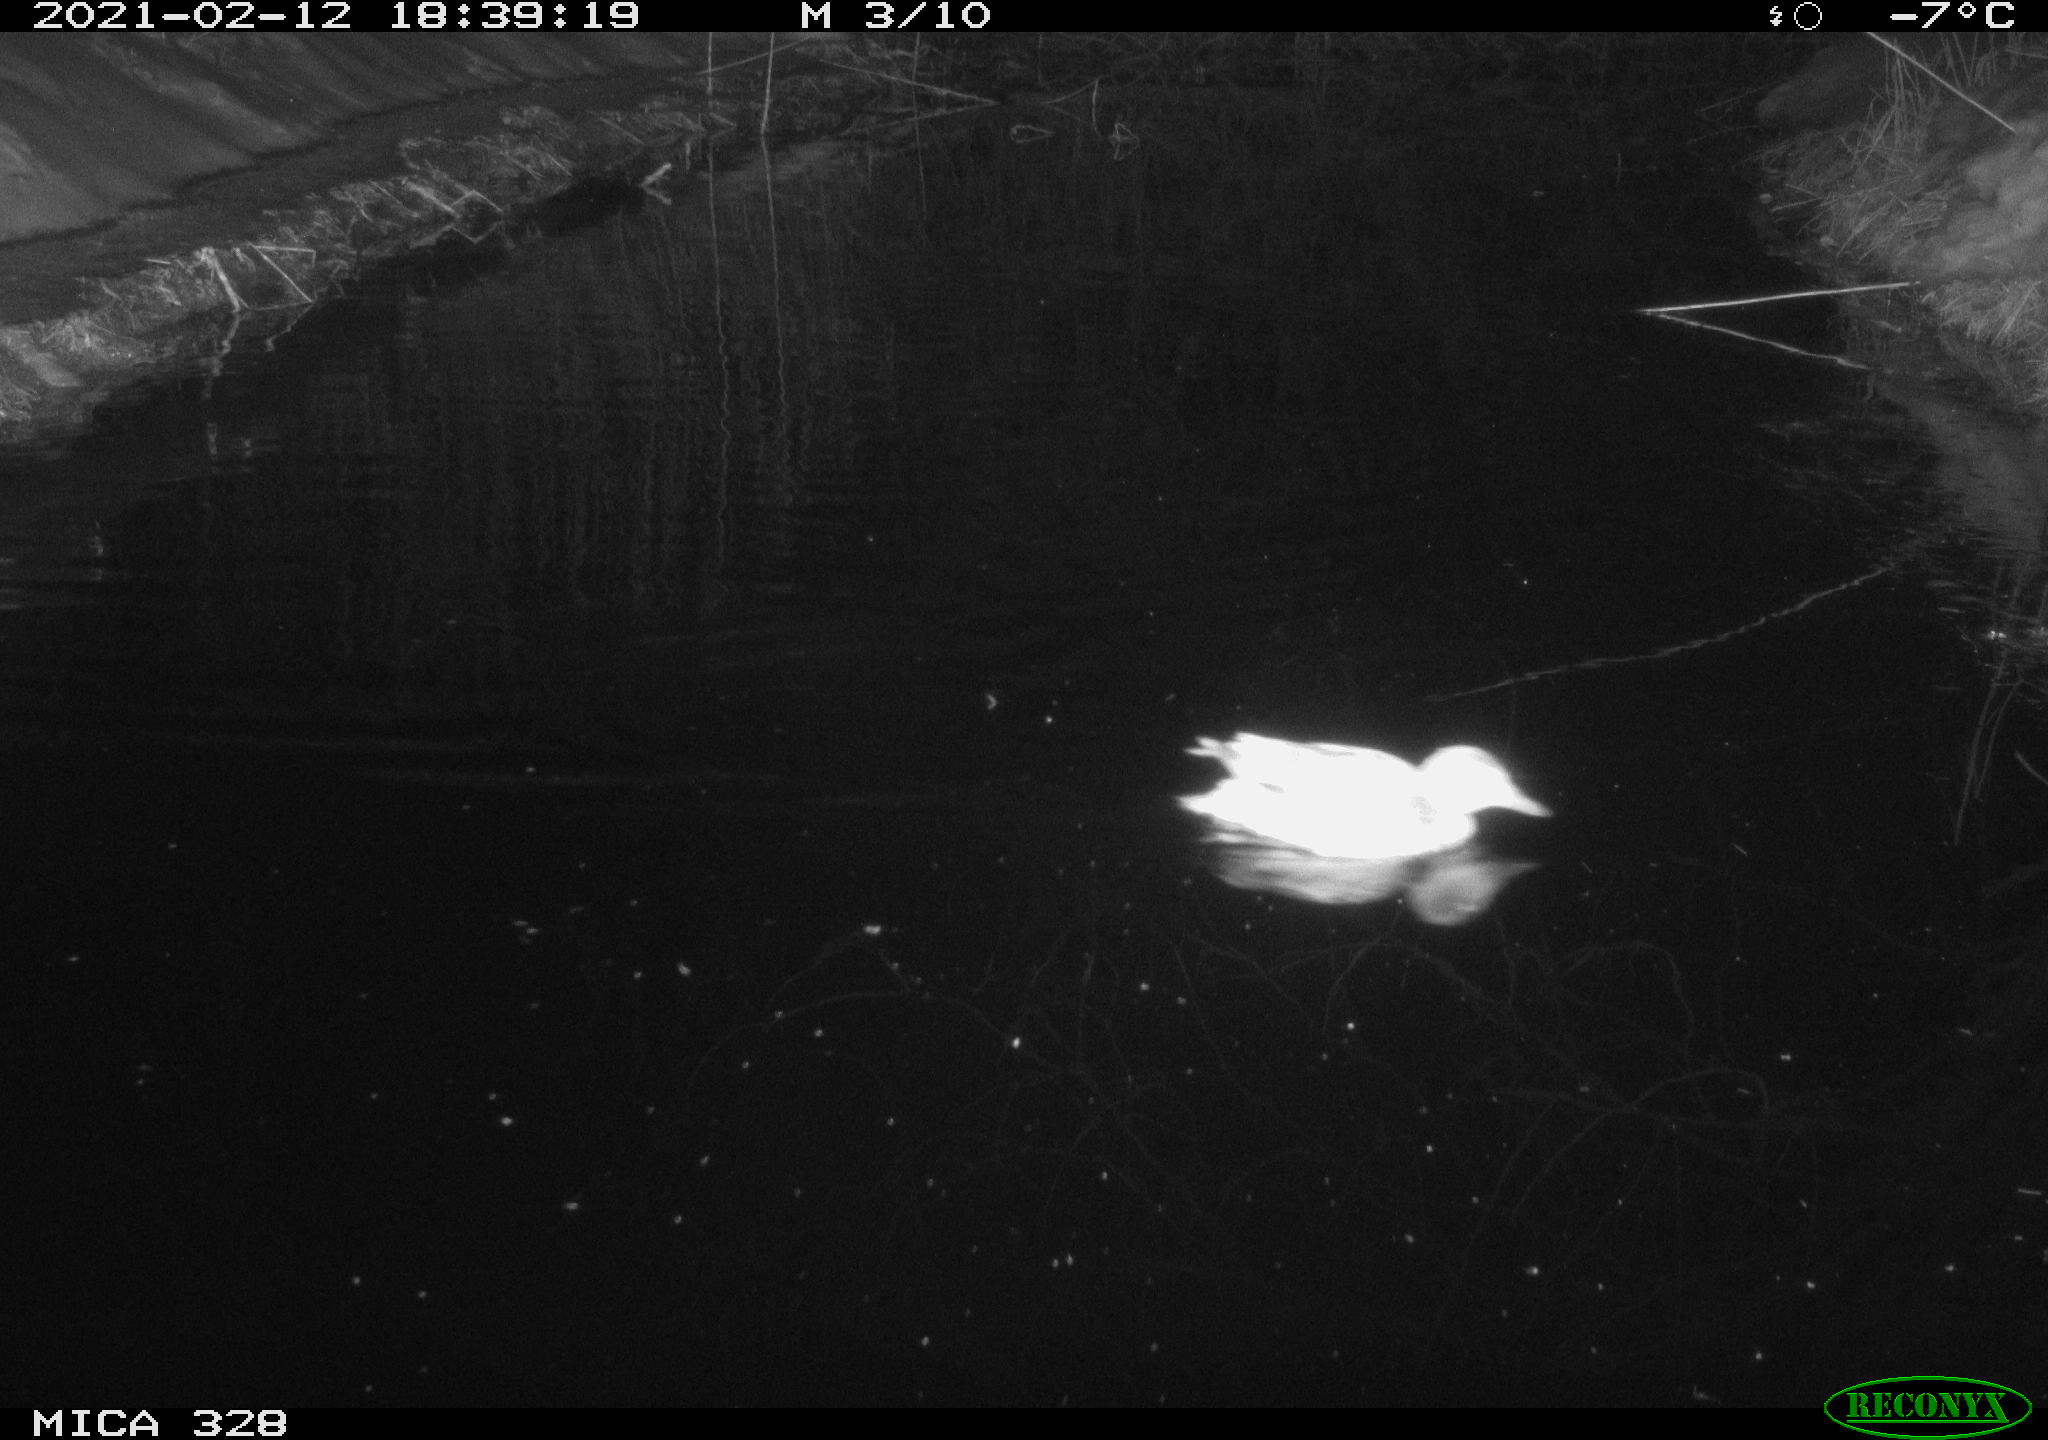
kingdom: Animalia
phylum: Chordata
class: Aves
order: Anseriformes
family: Anatidae
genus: Anas
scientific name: Anas platyrhynchos
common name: Mallard
